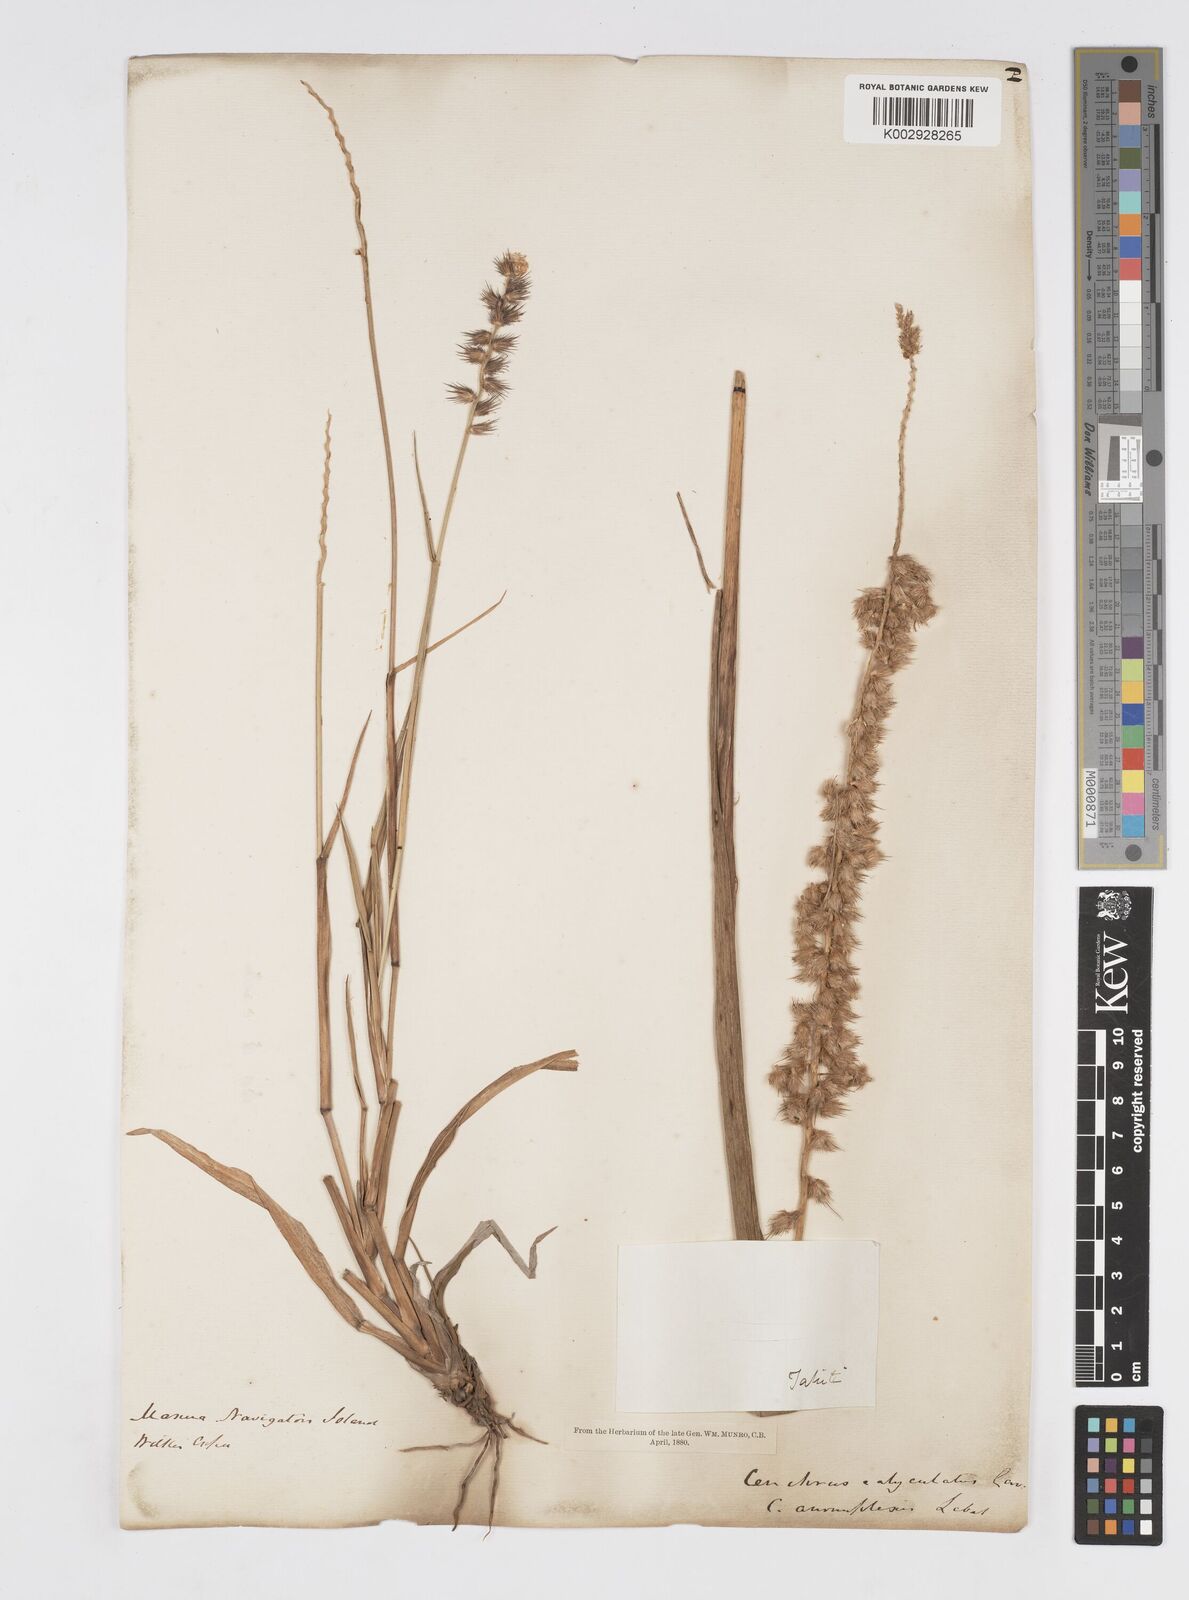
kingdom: Plantae
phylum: Tracheophyta
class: Liliopsida
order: Poales
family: Poaceae
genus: Cenchrus
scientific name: Cenchrus caliculatus
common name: Large bur grass
